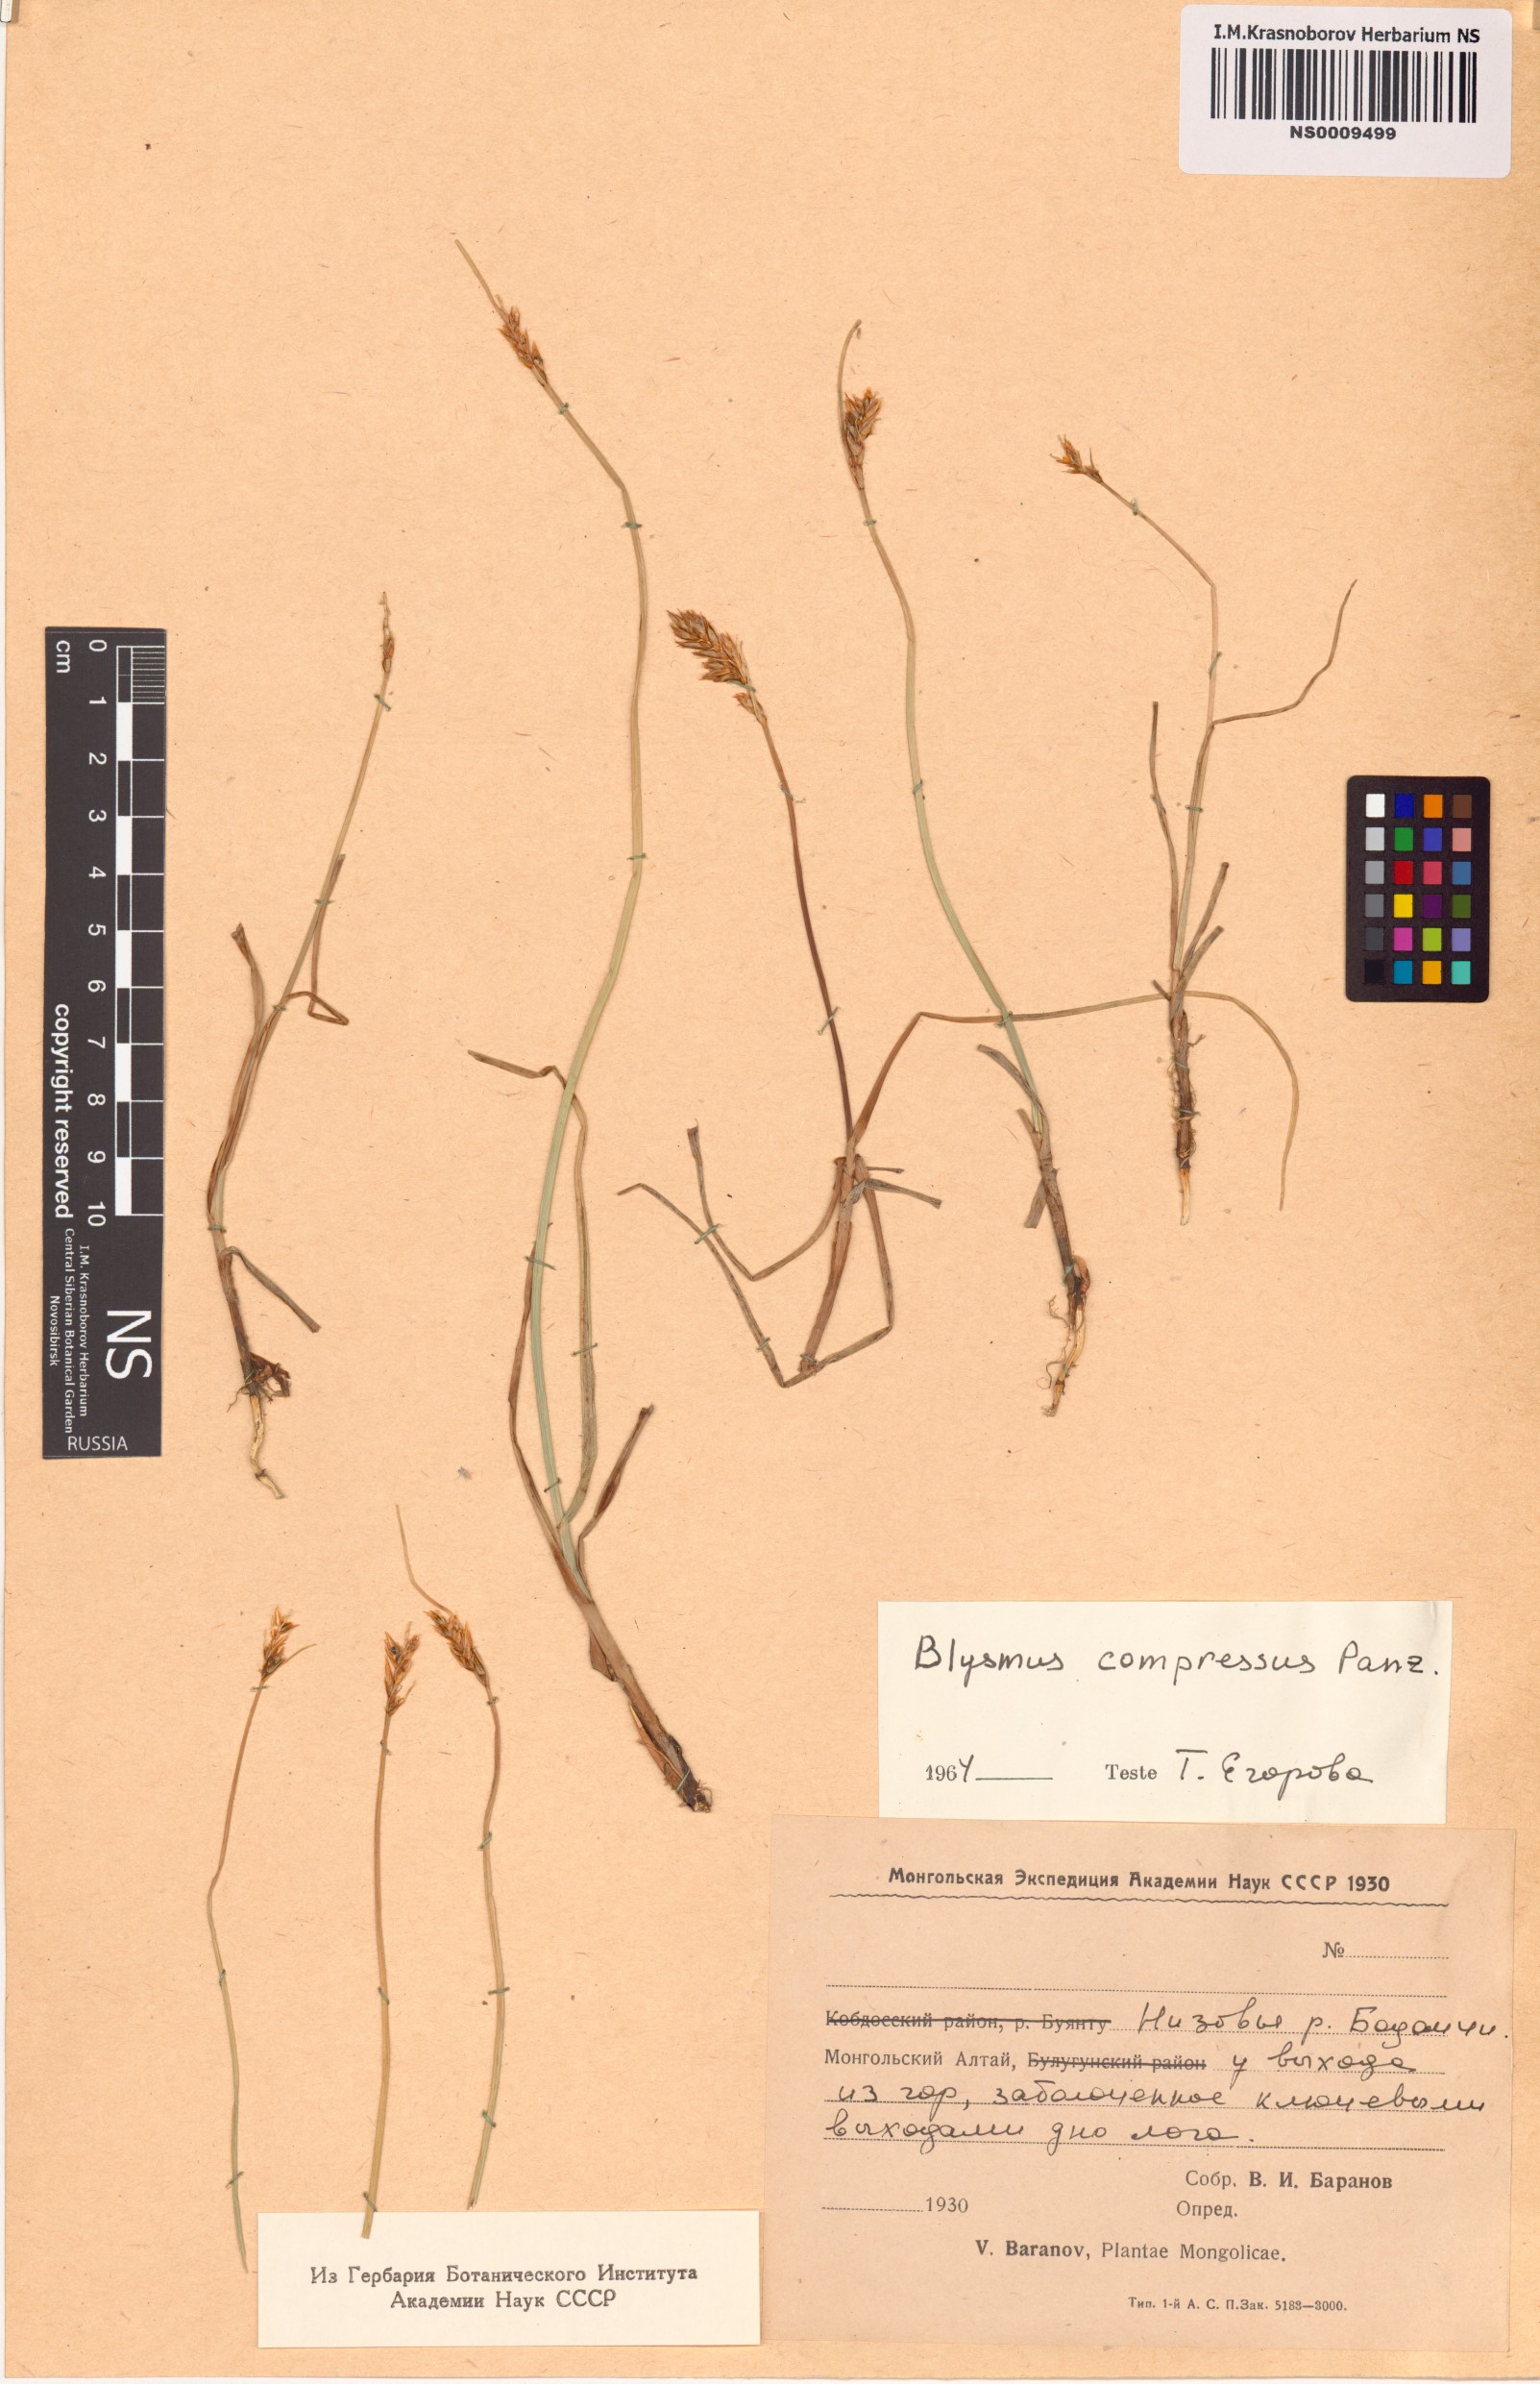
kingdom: Plantae
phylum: Tracheophyta
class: Liliopsida
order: Poales
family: Cyperaceae
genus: Blysmus
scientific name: Blysmus compressus
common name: Flat-sedge
